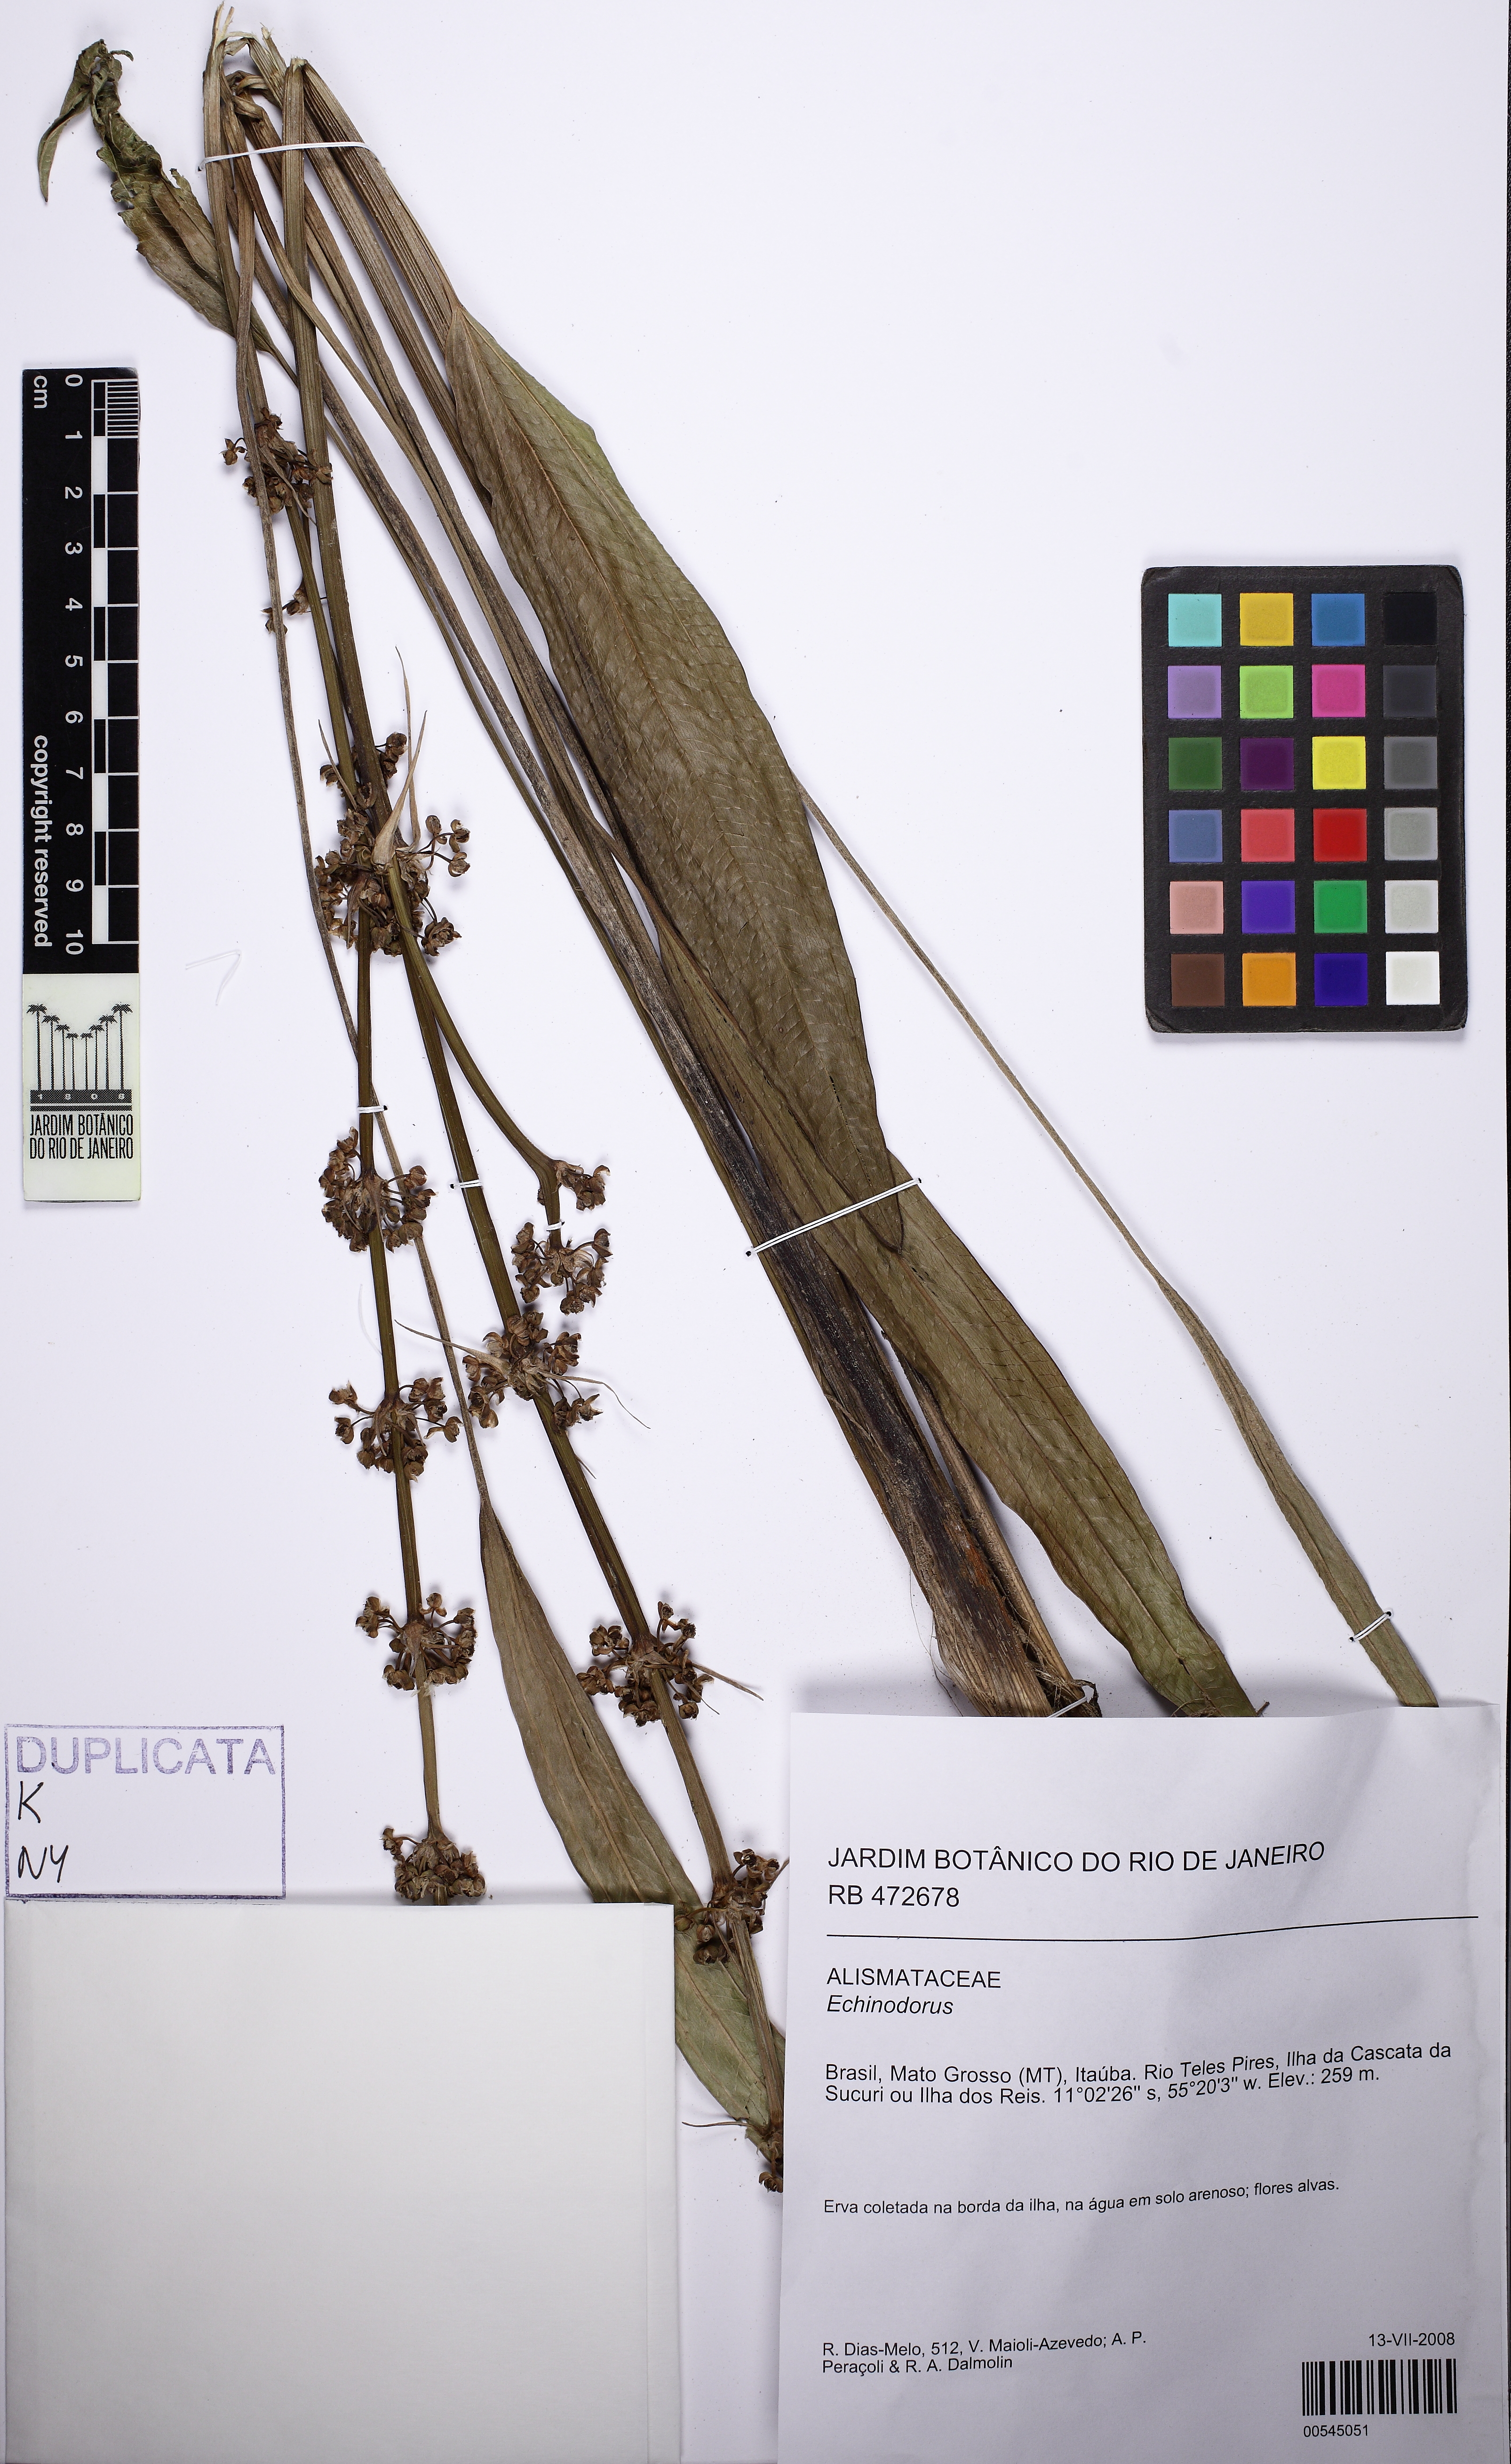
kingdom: Plantae
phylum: Tracheophyta
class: Liliopsida
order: Alismatales
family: Alismataceae
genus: Echinodorus
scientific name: Echinodorus
